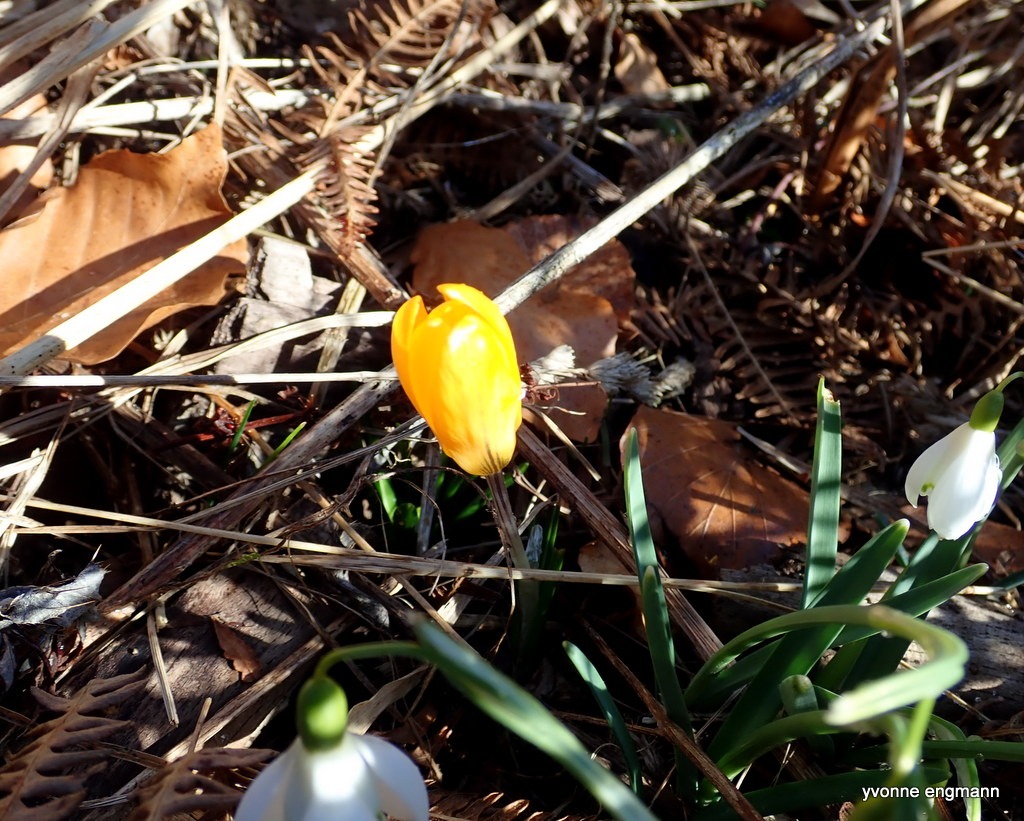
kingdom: Plantae
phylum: Tracheophyta
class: Liliopsida
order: Asparagales
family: Iridaceae
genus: Crocus
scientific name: Crocus luteus
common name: Gul krokus
